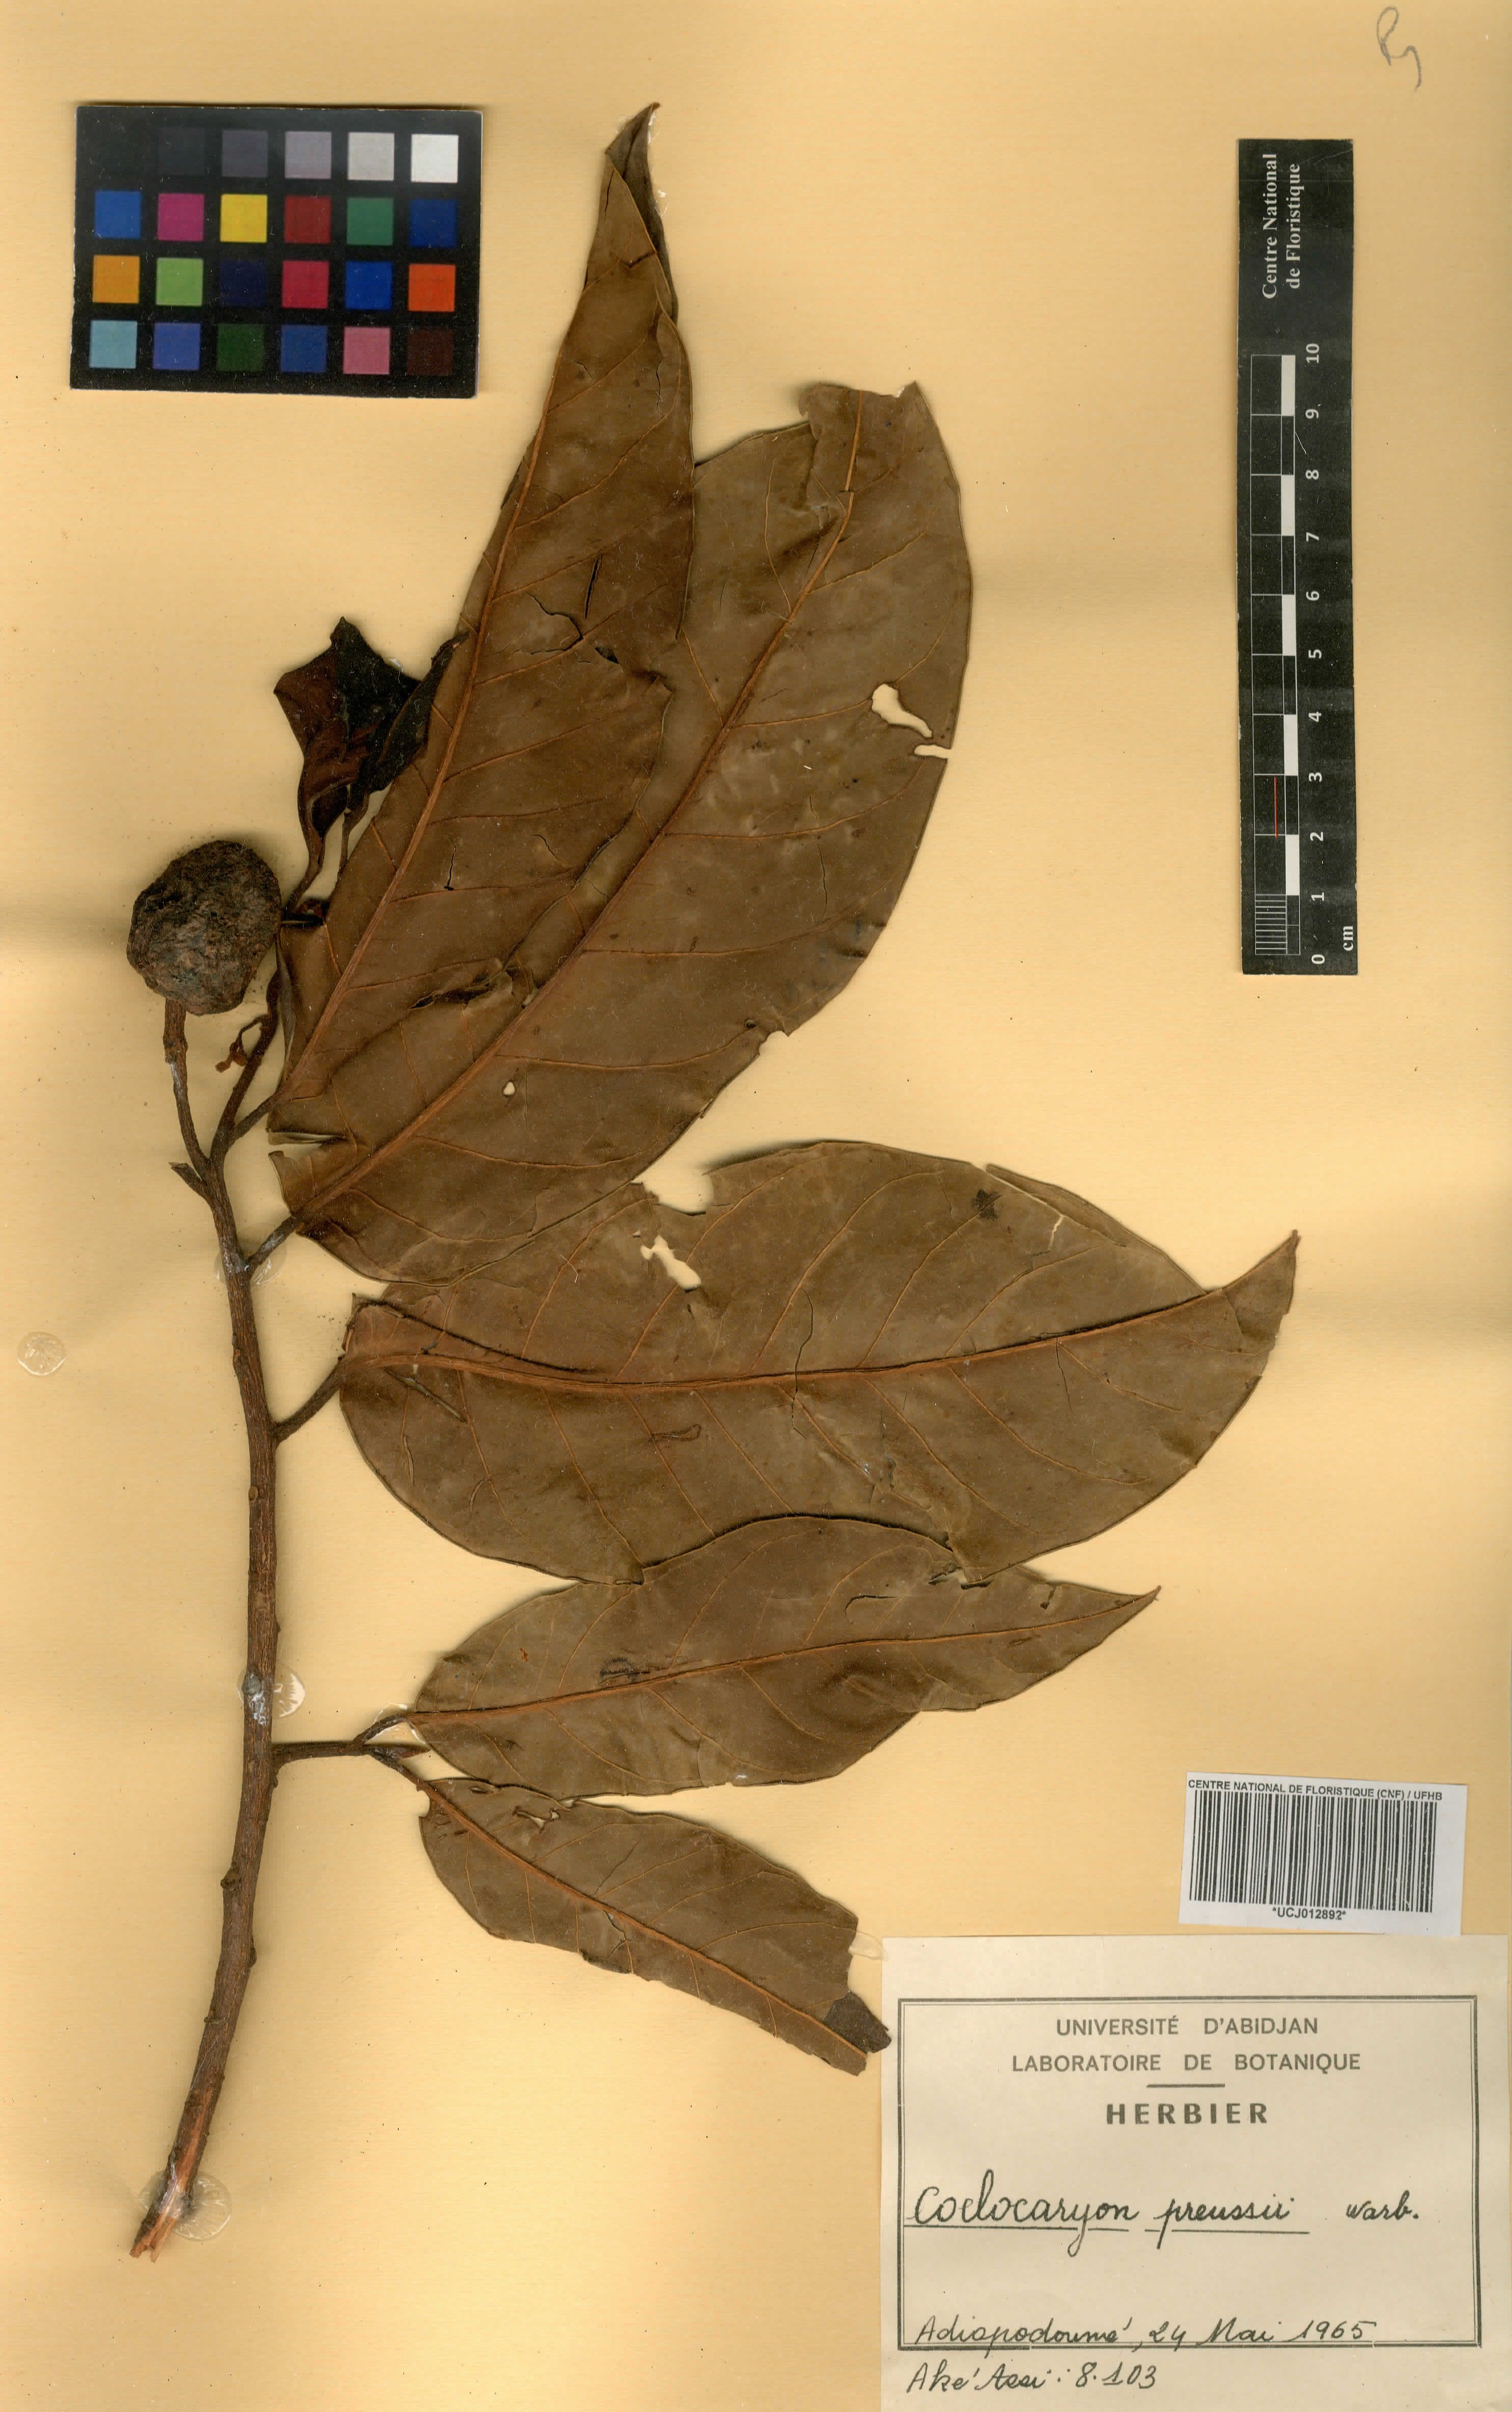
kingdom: Plantae
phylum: Tracheophyta
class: Magnoliopsida
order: Magnoliales
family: Myristicaceae
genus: Coelocaryon
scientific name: Coelocaryon preussii
